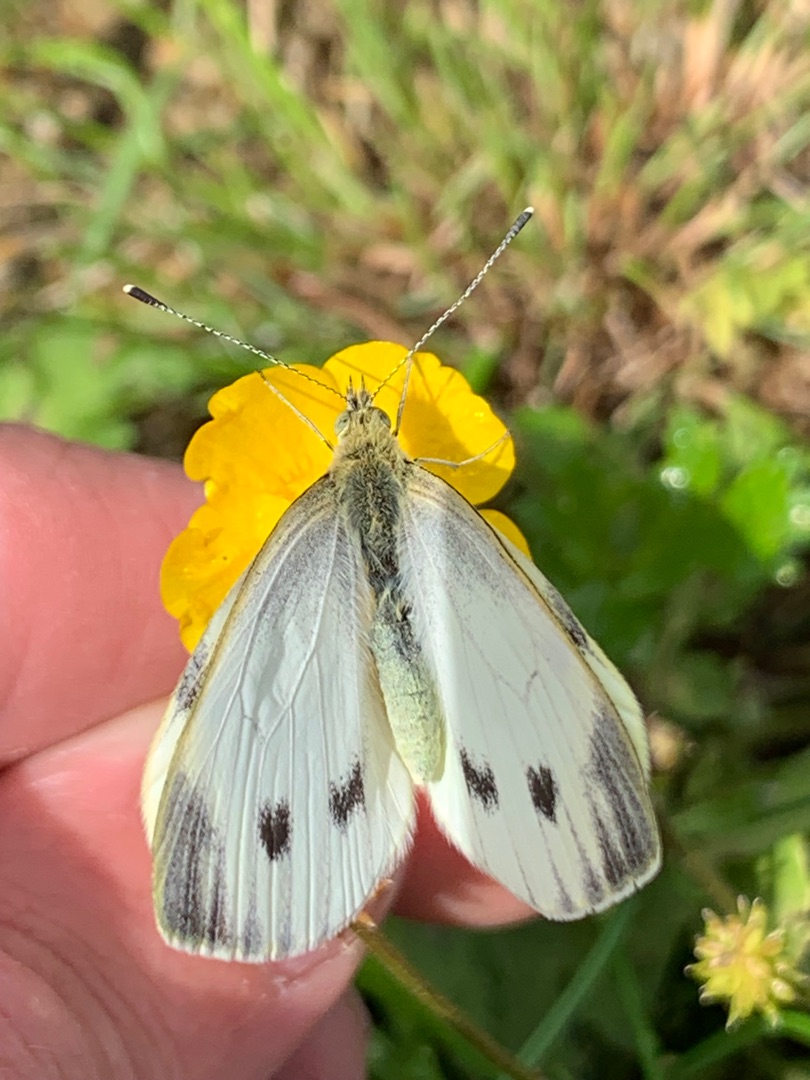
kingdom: Animalia
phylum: Arthropoda
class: Insecta
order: Lepidoptera
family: Pieridae
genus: Pieris
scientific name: Pieris napi
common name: Grønåret kålsommerfugl
